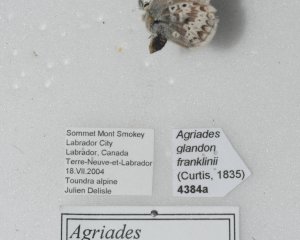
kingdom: Animalia
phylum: Arthropoda
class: Insecta
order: Lepidoptera
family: Lycaenidae
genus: Agriades
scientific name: Agriades glandon
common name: Arctic Blue
